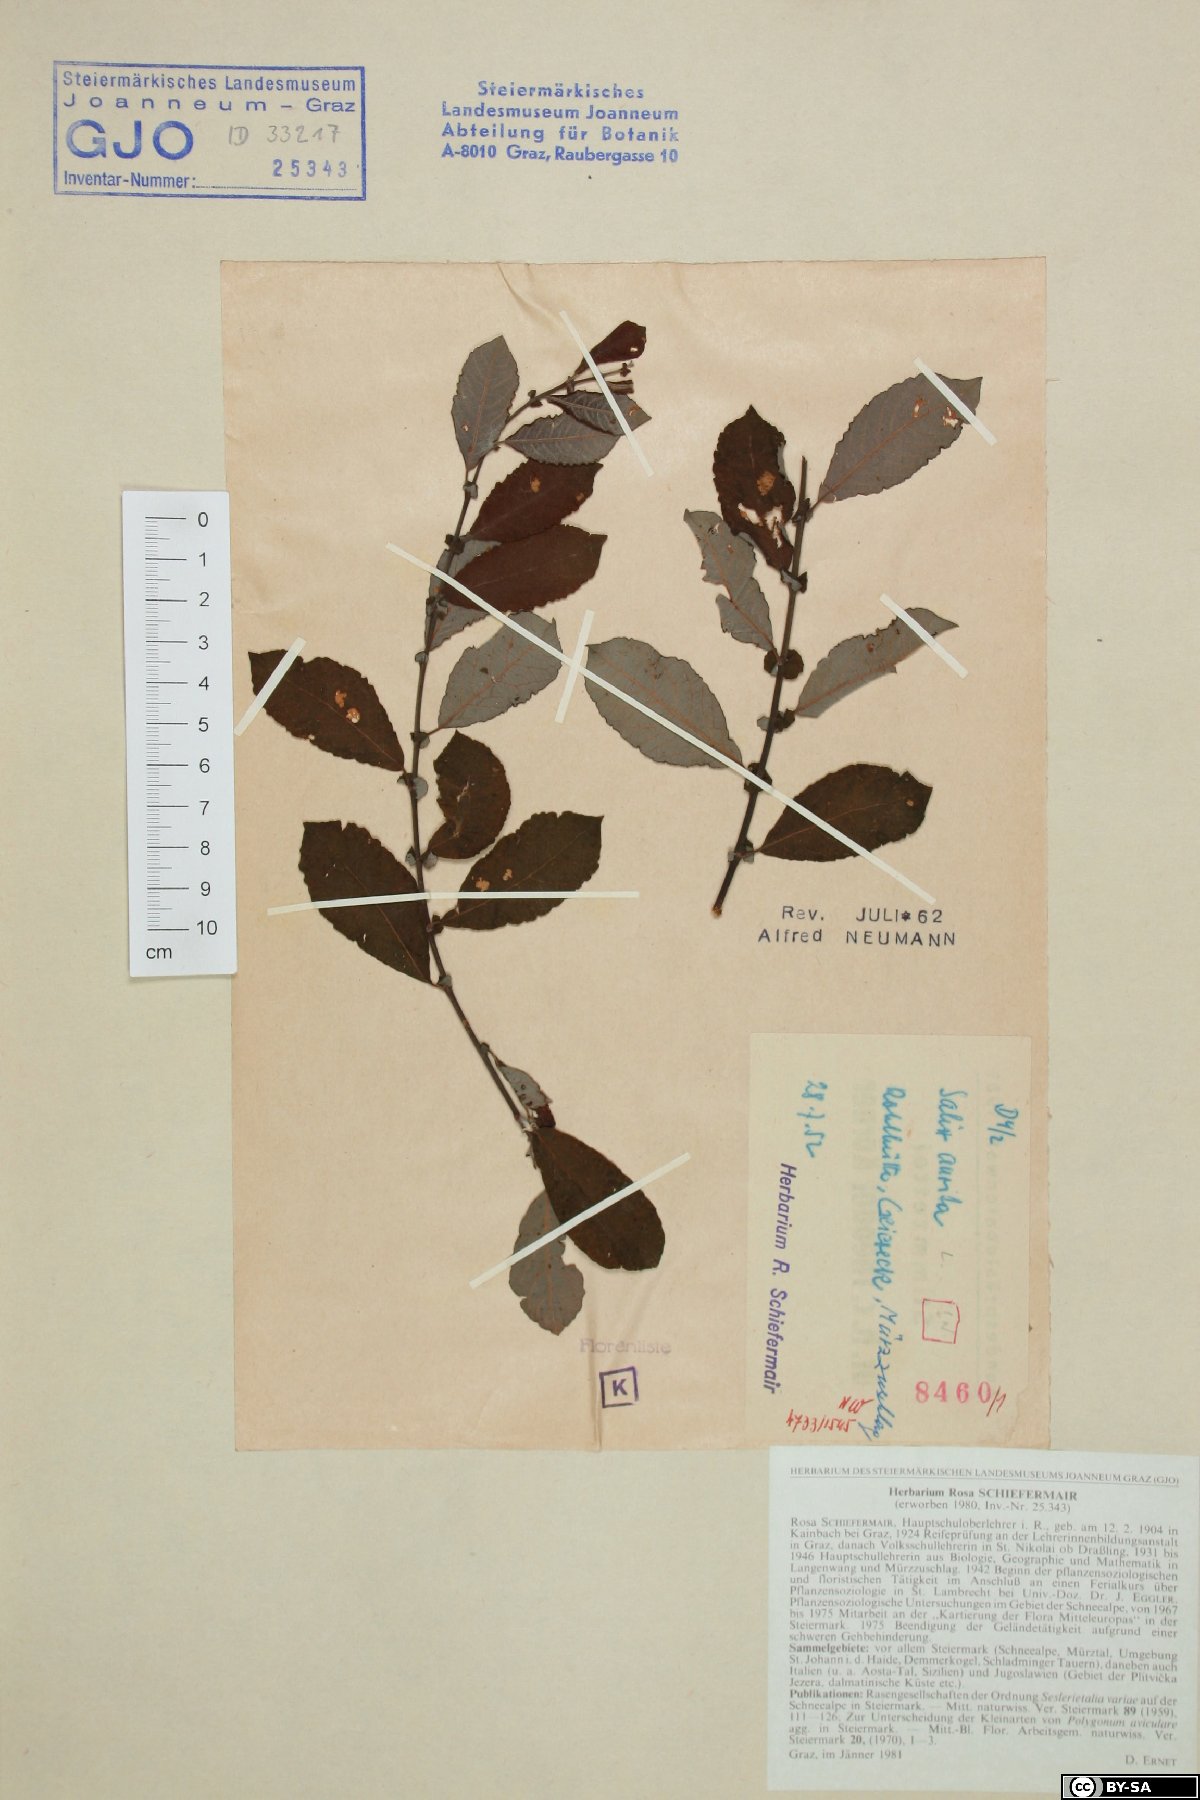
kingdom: Plantae
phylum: Tracheophyta
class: Magnoliopsida
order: Malpighiales
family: Salicaceae
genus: Salix
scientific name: Salix aurita
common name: Eared willow
